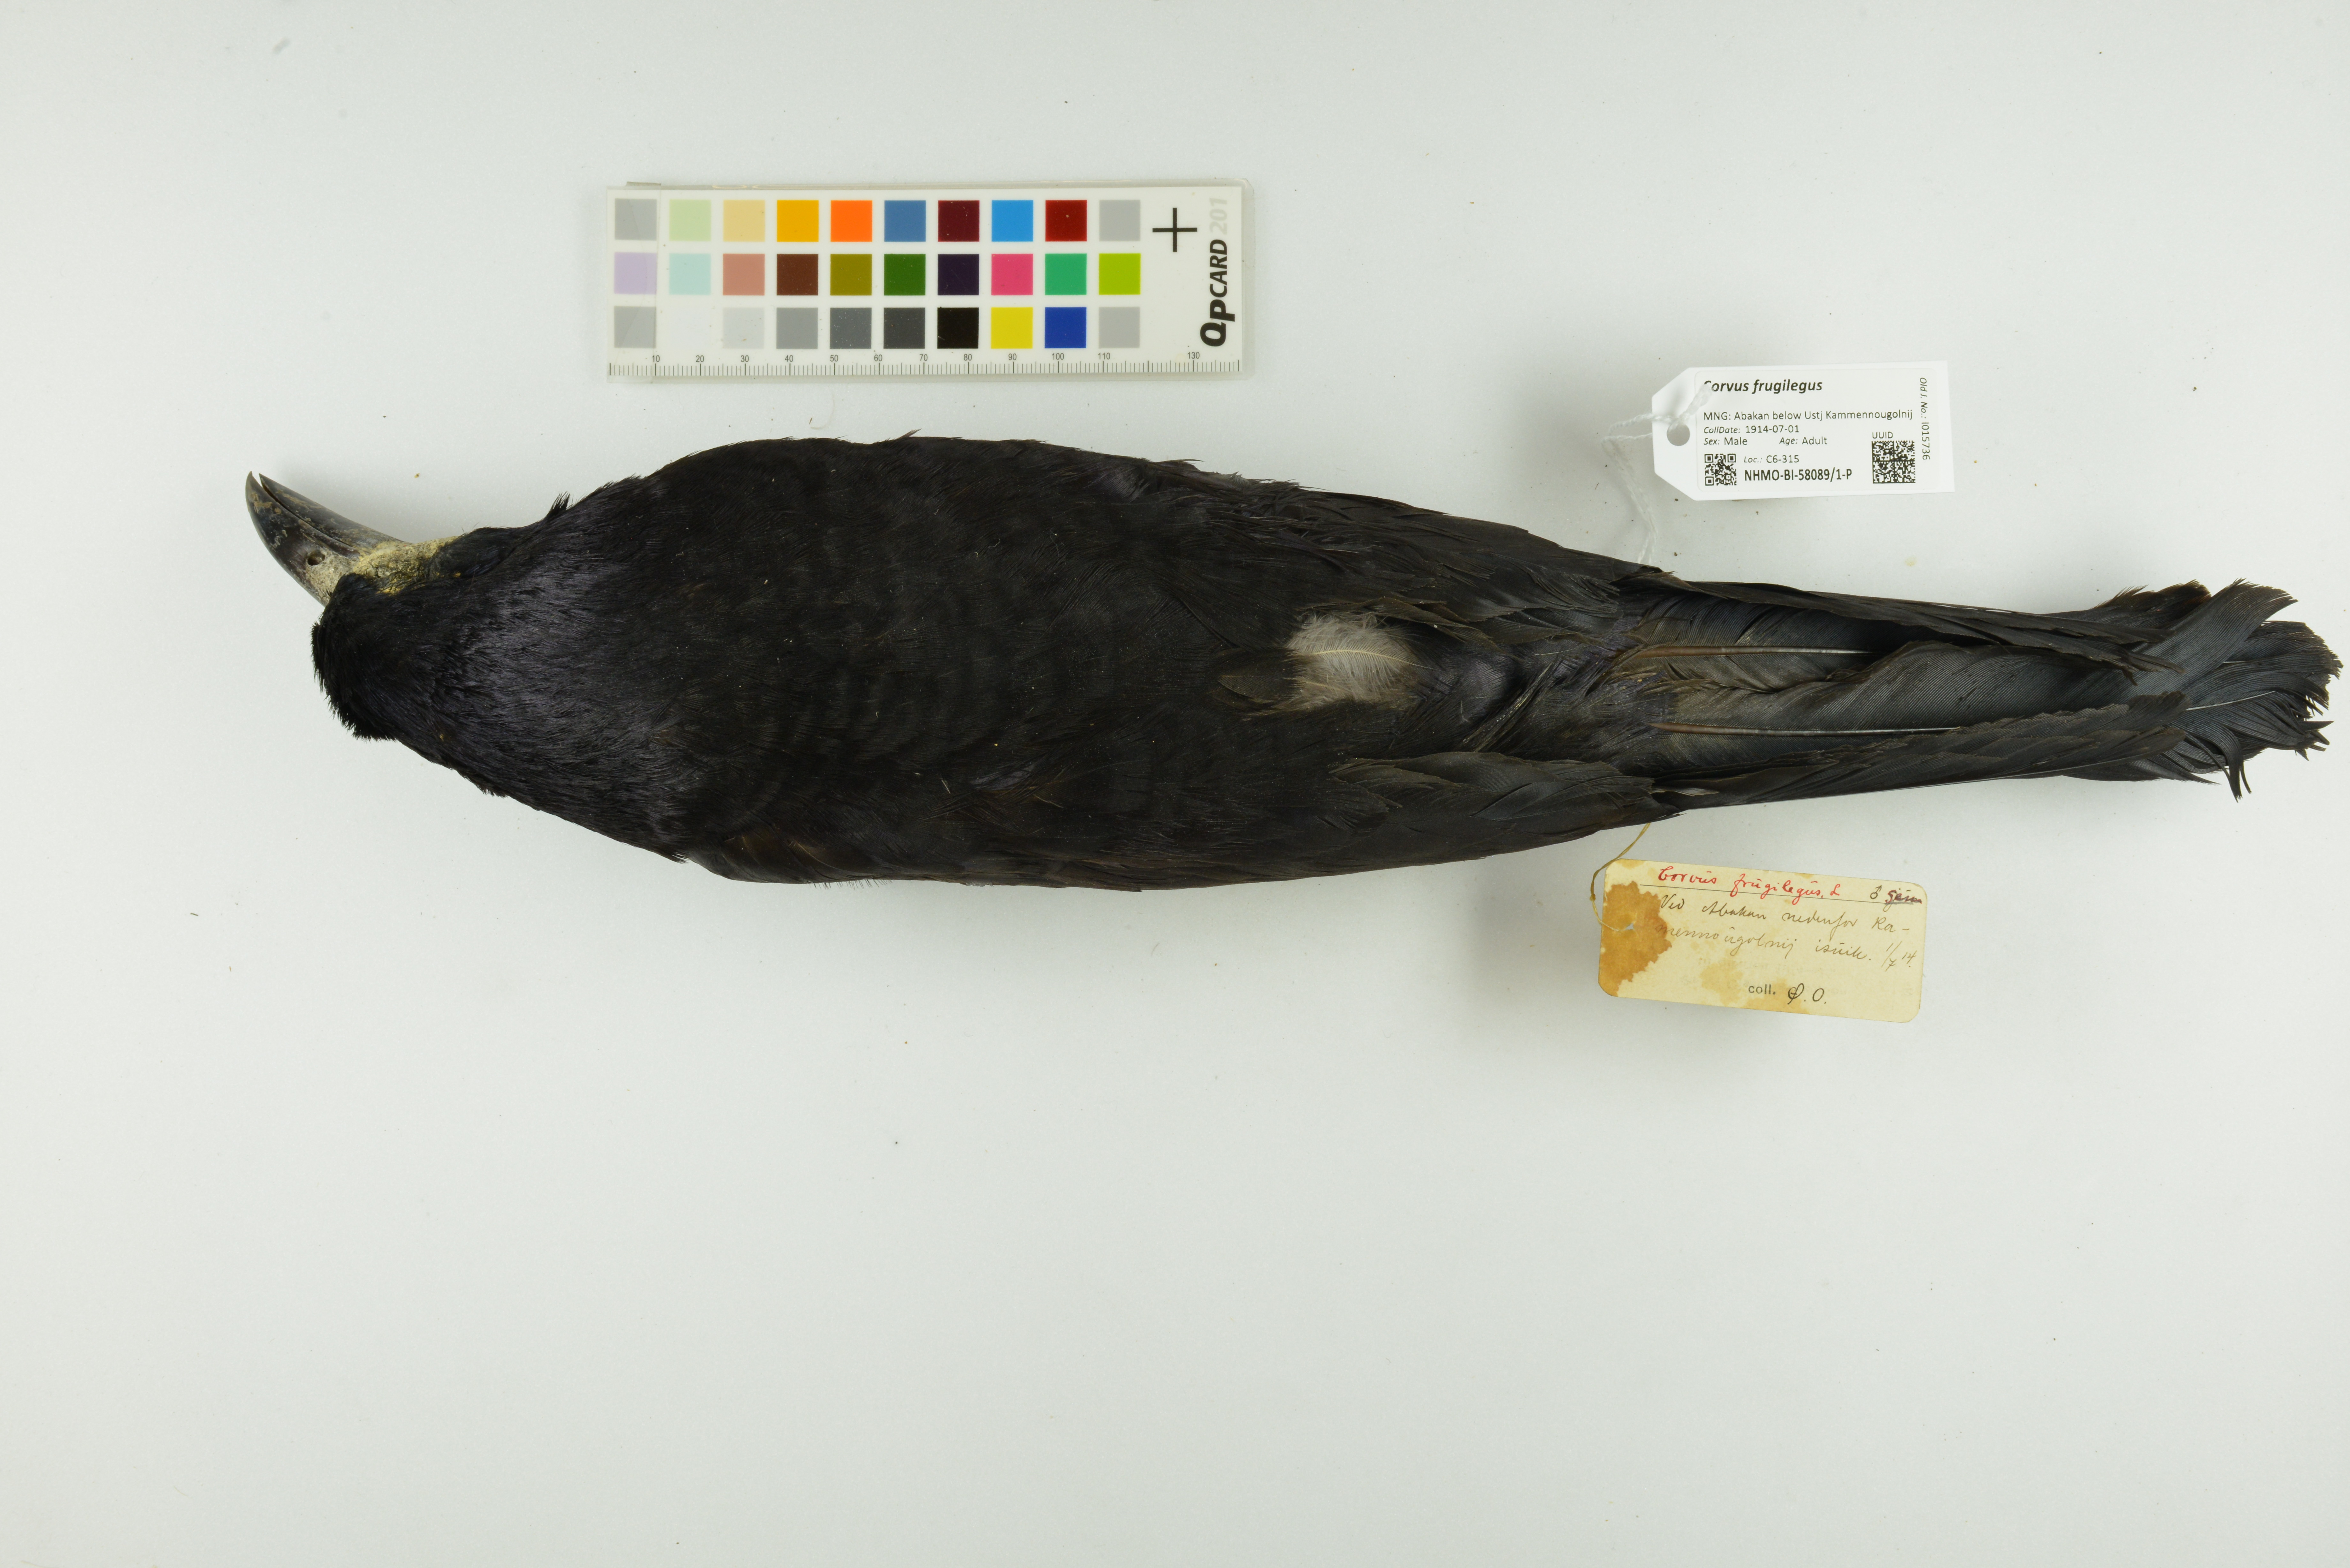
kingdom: Animalia
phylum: Chordata
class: Aves
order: Passeriformes
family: Corvidae
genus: Corvus
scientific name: Corvus frugilegus
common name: Rook
